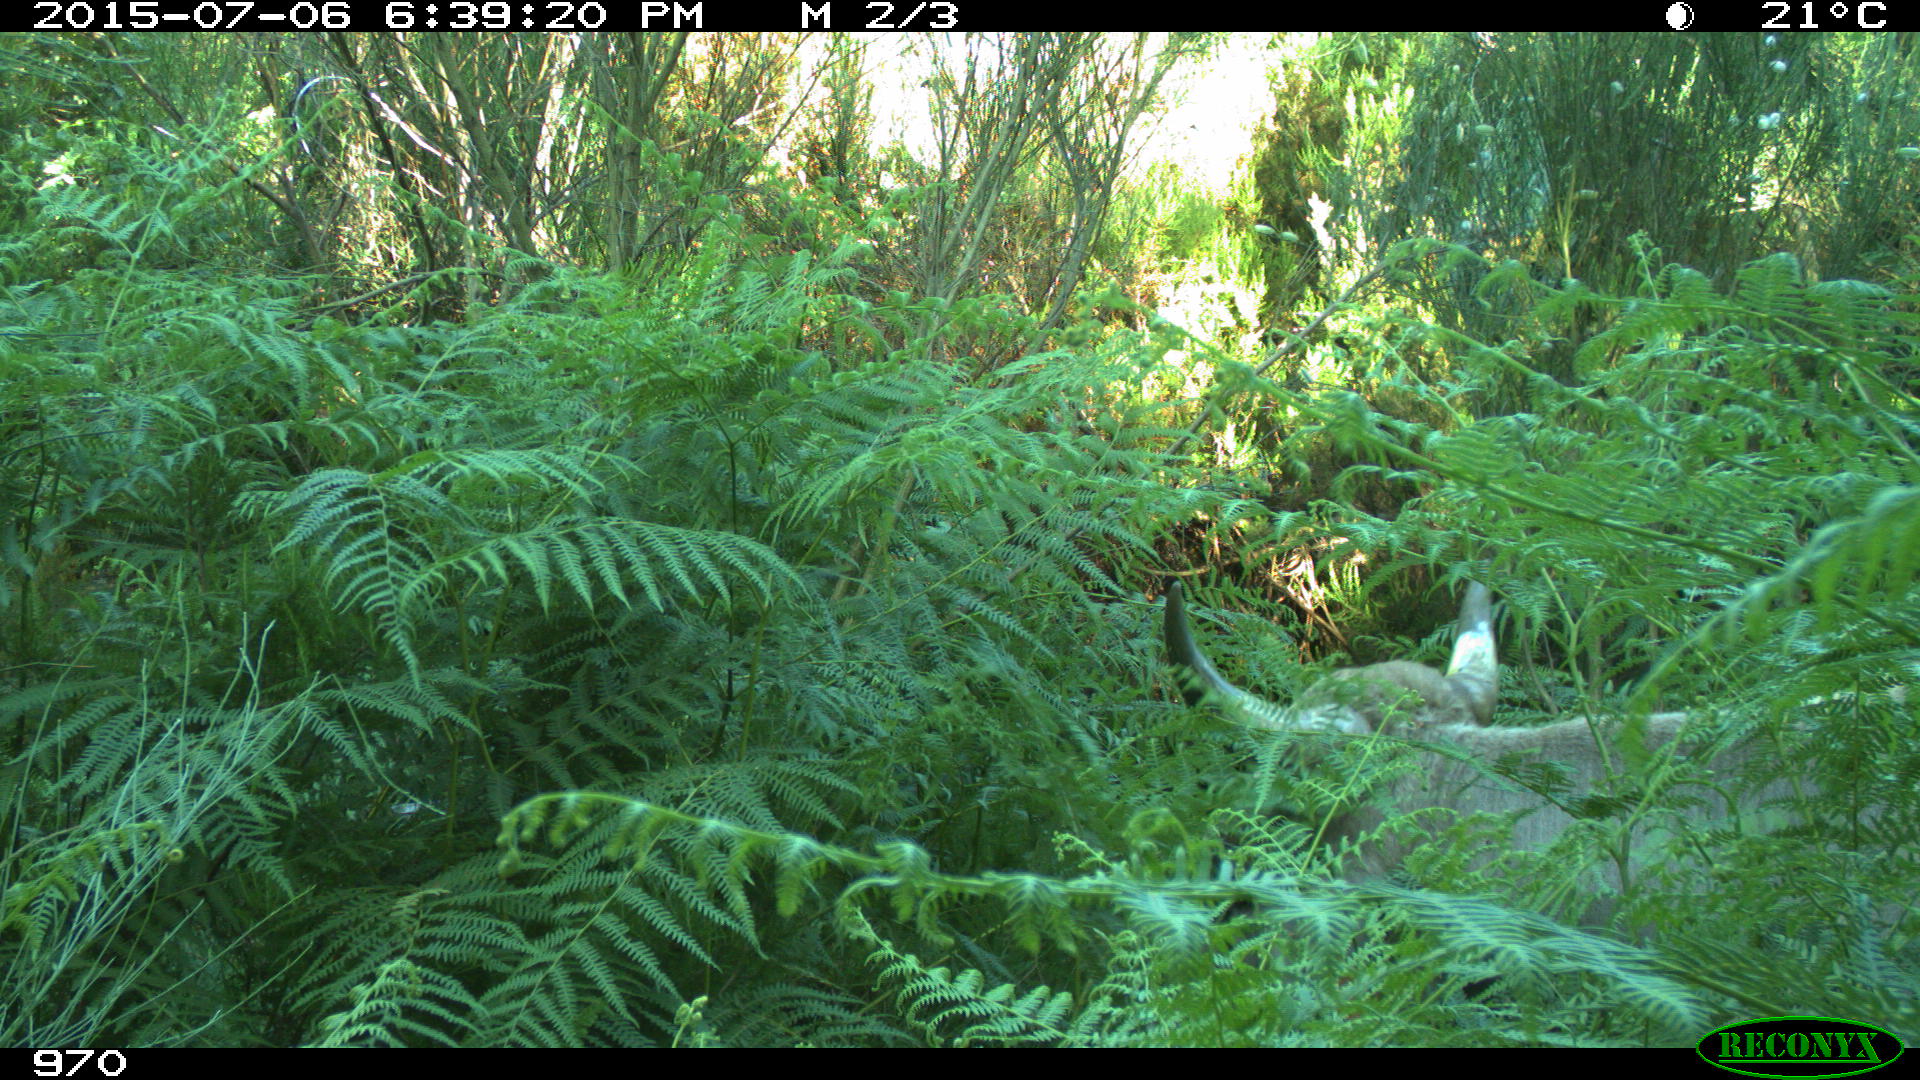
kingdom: Animalia
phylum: Chordata
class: Mammalia
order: Artiodactyla
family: Bovidae
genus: Bos
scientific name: Bos taurus
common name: Domesticated cattle
